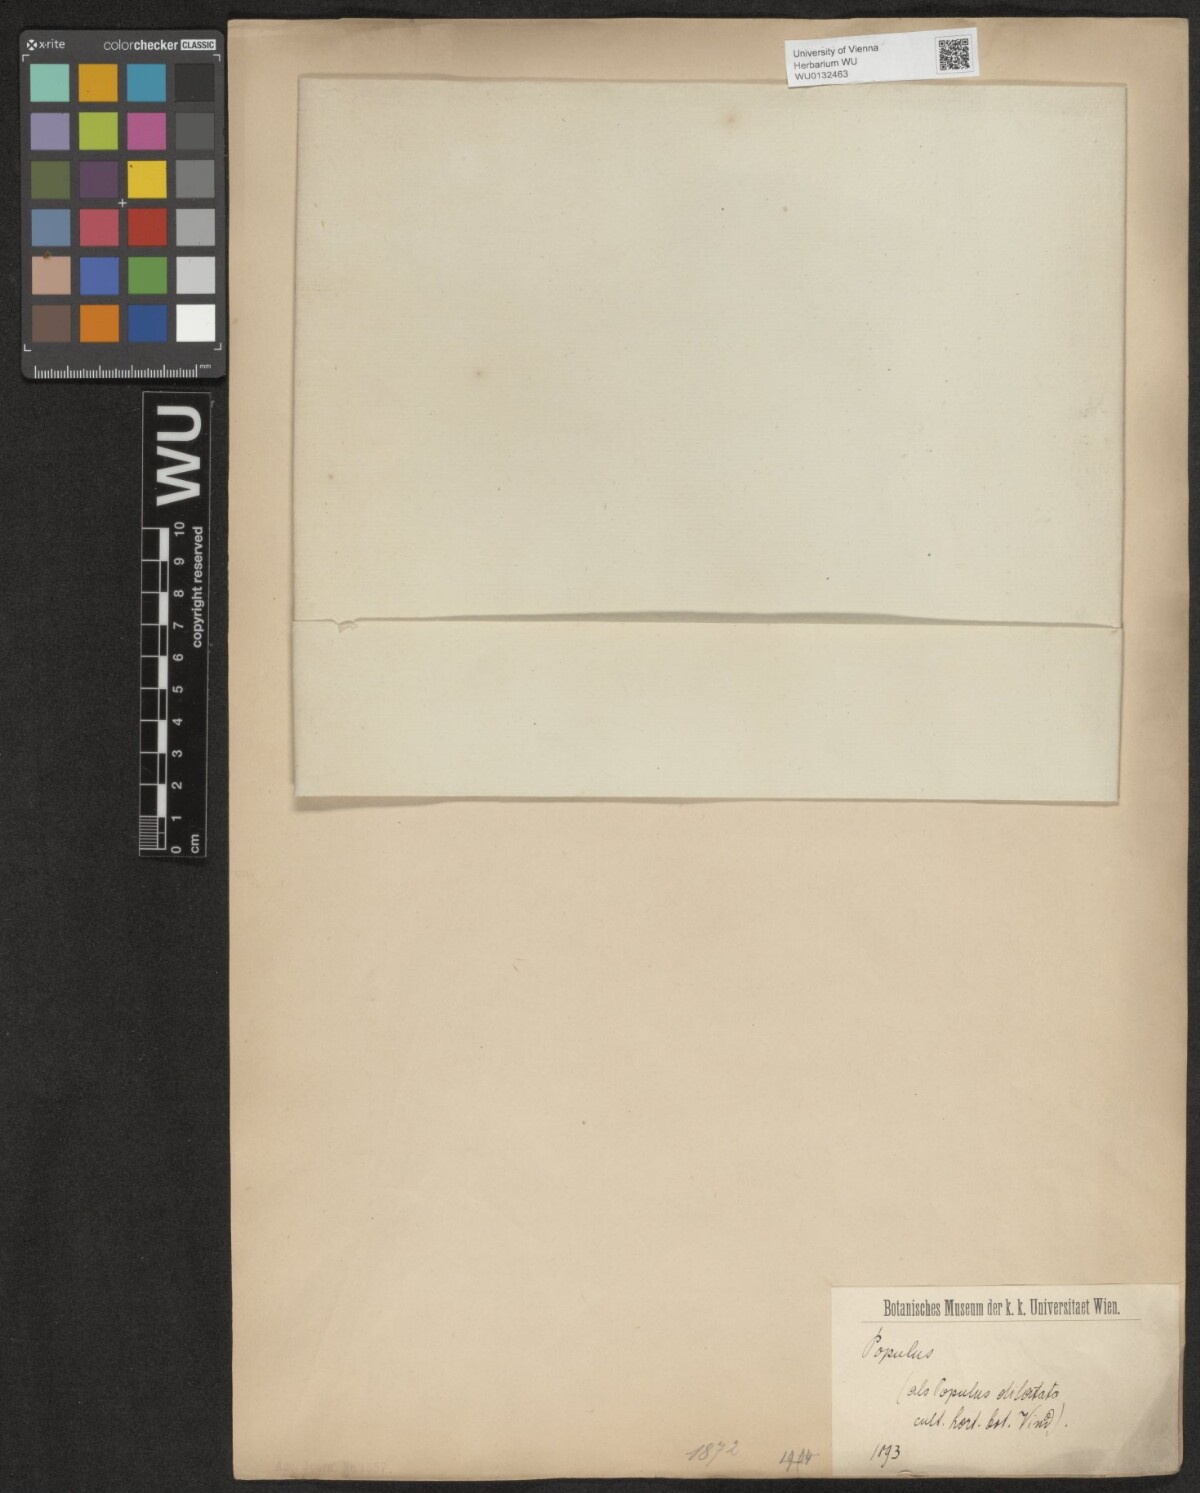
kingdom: Plantae
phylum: Tracheophyta
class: Magnoliopsida
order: Malpighiales
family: Salicaceae
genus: Populus
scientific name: Populus
